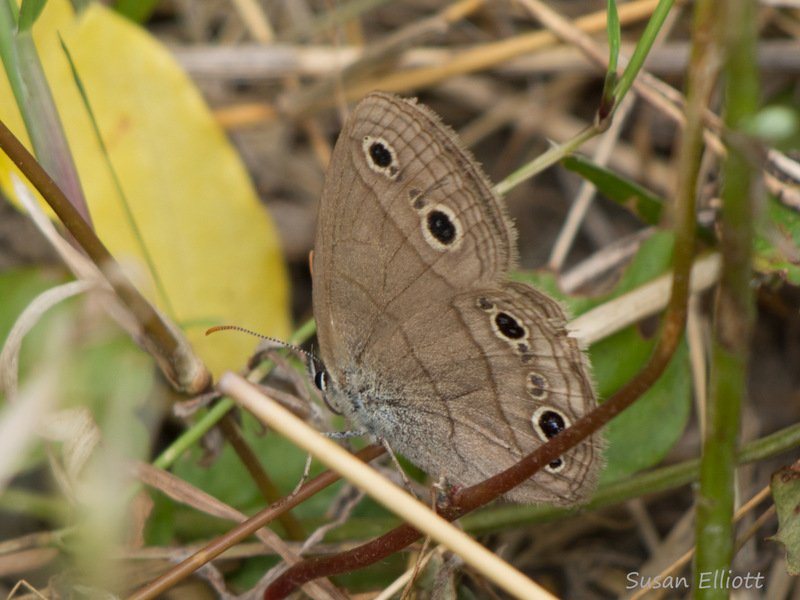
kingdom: Animalia
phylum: Arthropoda
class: Insecta
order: Lepidoptera
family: Nymphalidae
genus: Euptychia
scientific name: Euptychia cymela
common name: Little Wood Satyr
